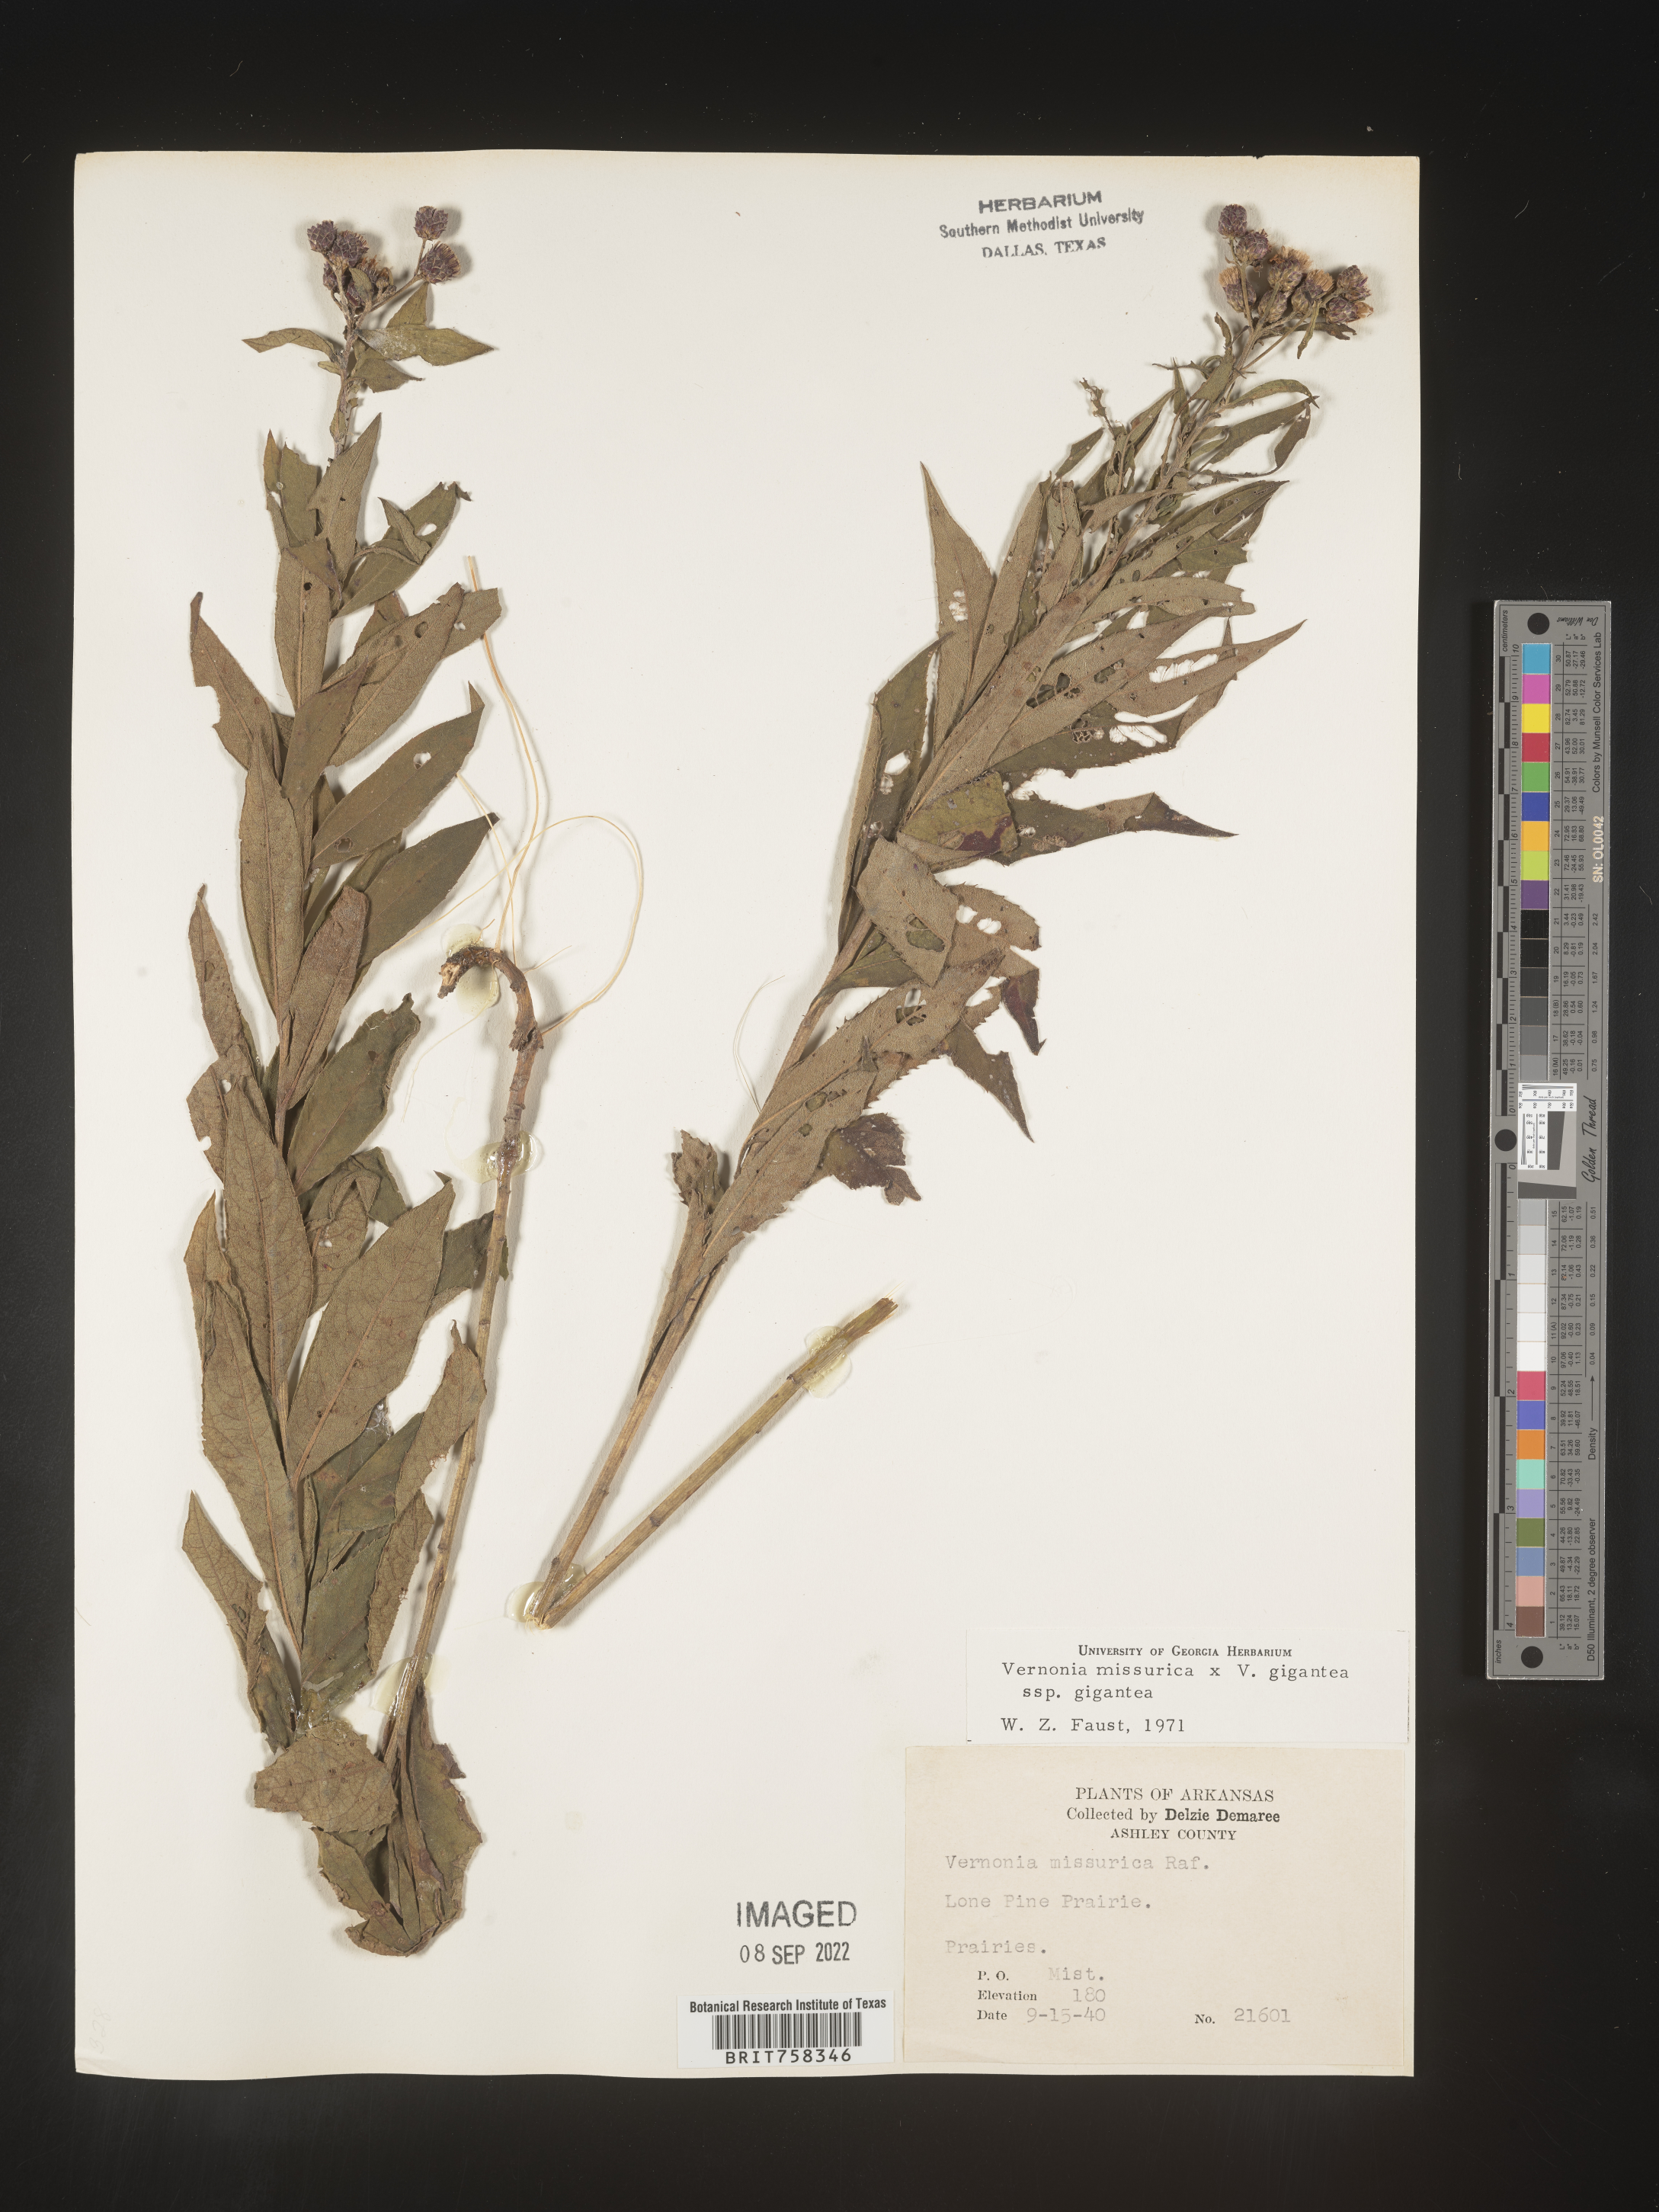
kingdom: Plantae
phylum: Tracheophyta
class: Magnoliopsida
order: Asterales
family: Asteraceae
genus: Vernonia
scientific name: Vernonia missurica
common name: Missouri ironweed
